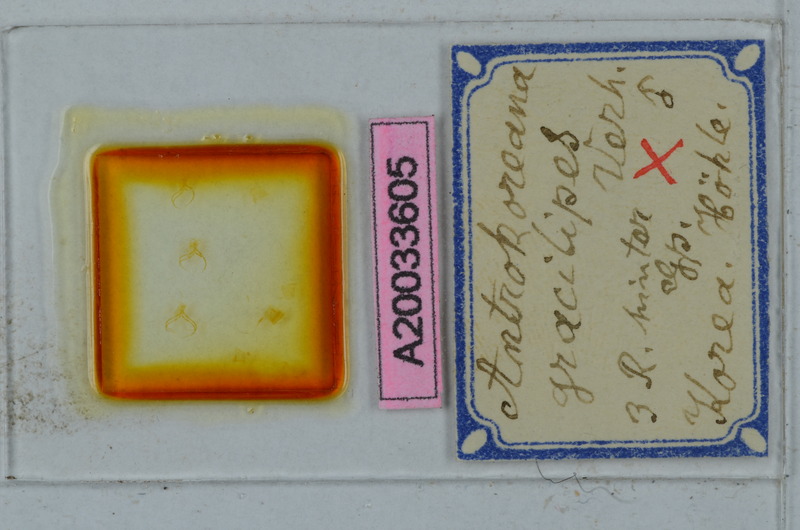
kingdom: Animalia
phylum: Arthropoda
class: Diplopoda
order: Julida
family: Nemasomatidae
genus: Antrokoreana
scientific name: Antrokoreana gracilipes
